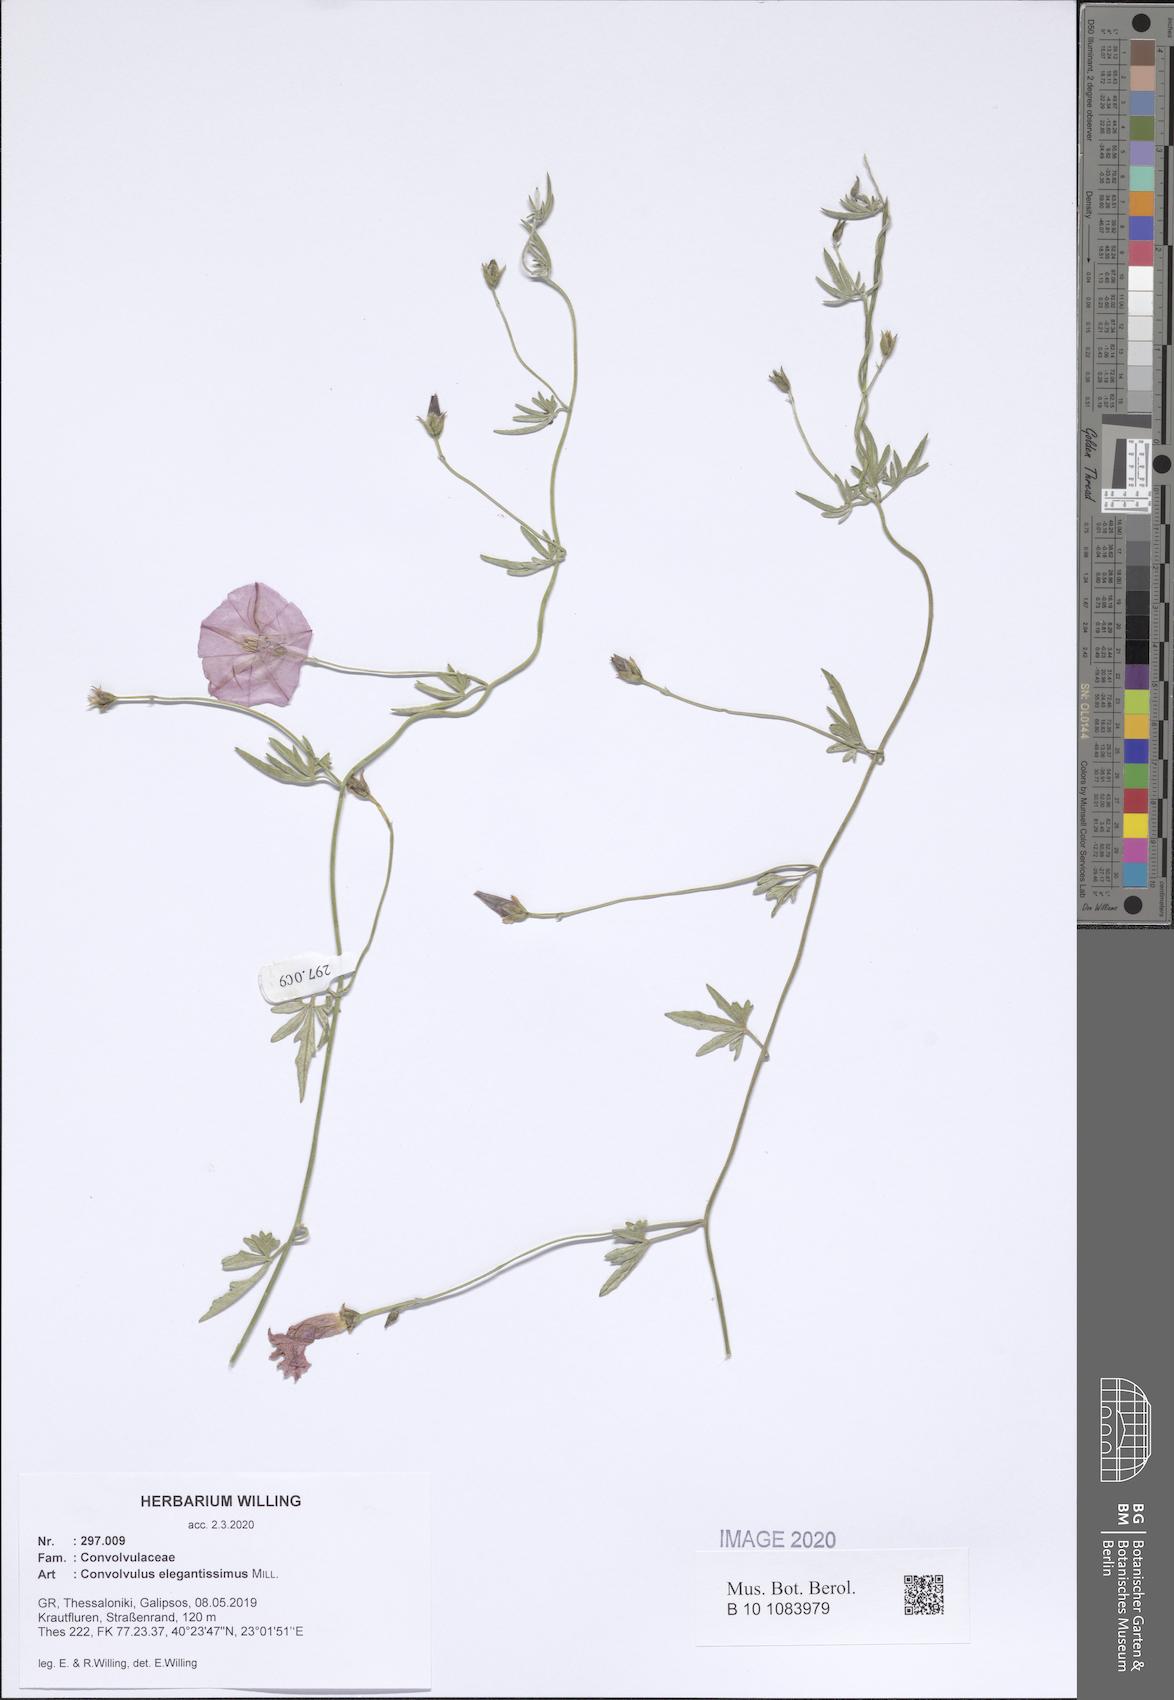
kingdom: Plantae
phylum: Tracheophyta
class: Magnoliopsida
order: Solanales
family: Convolvulaceae
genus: Convolvulus
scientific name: Convolvulus elegantissimus
